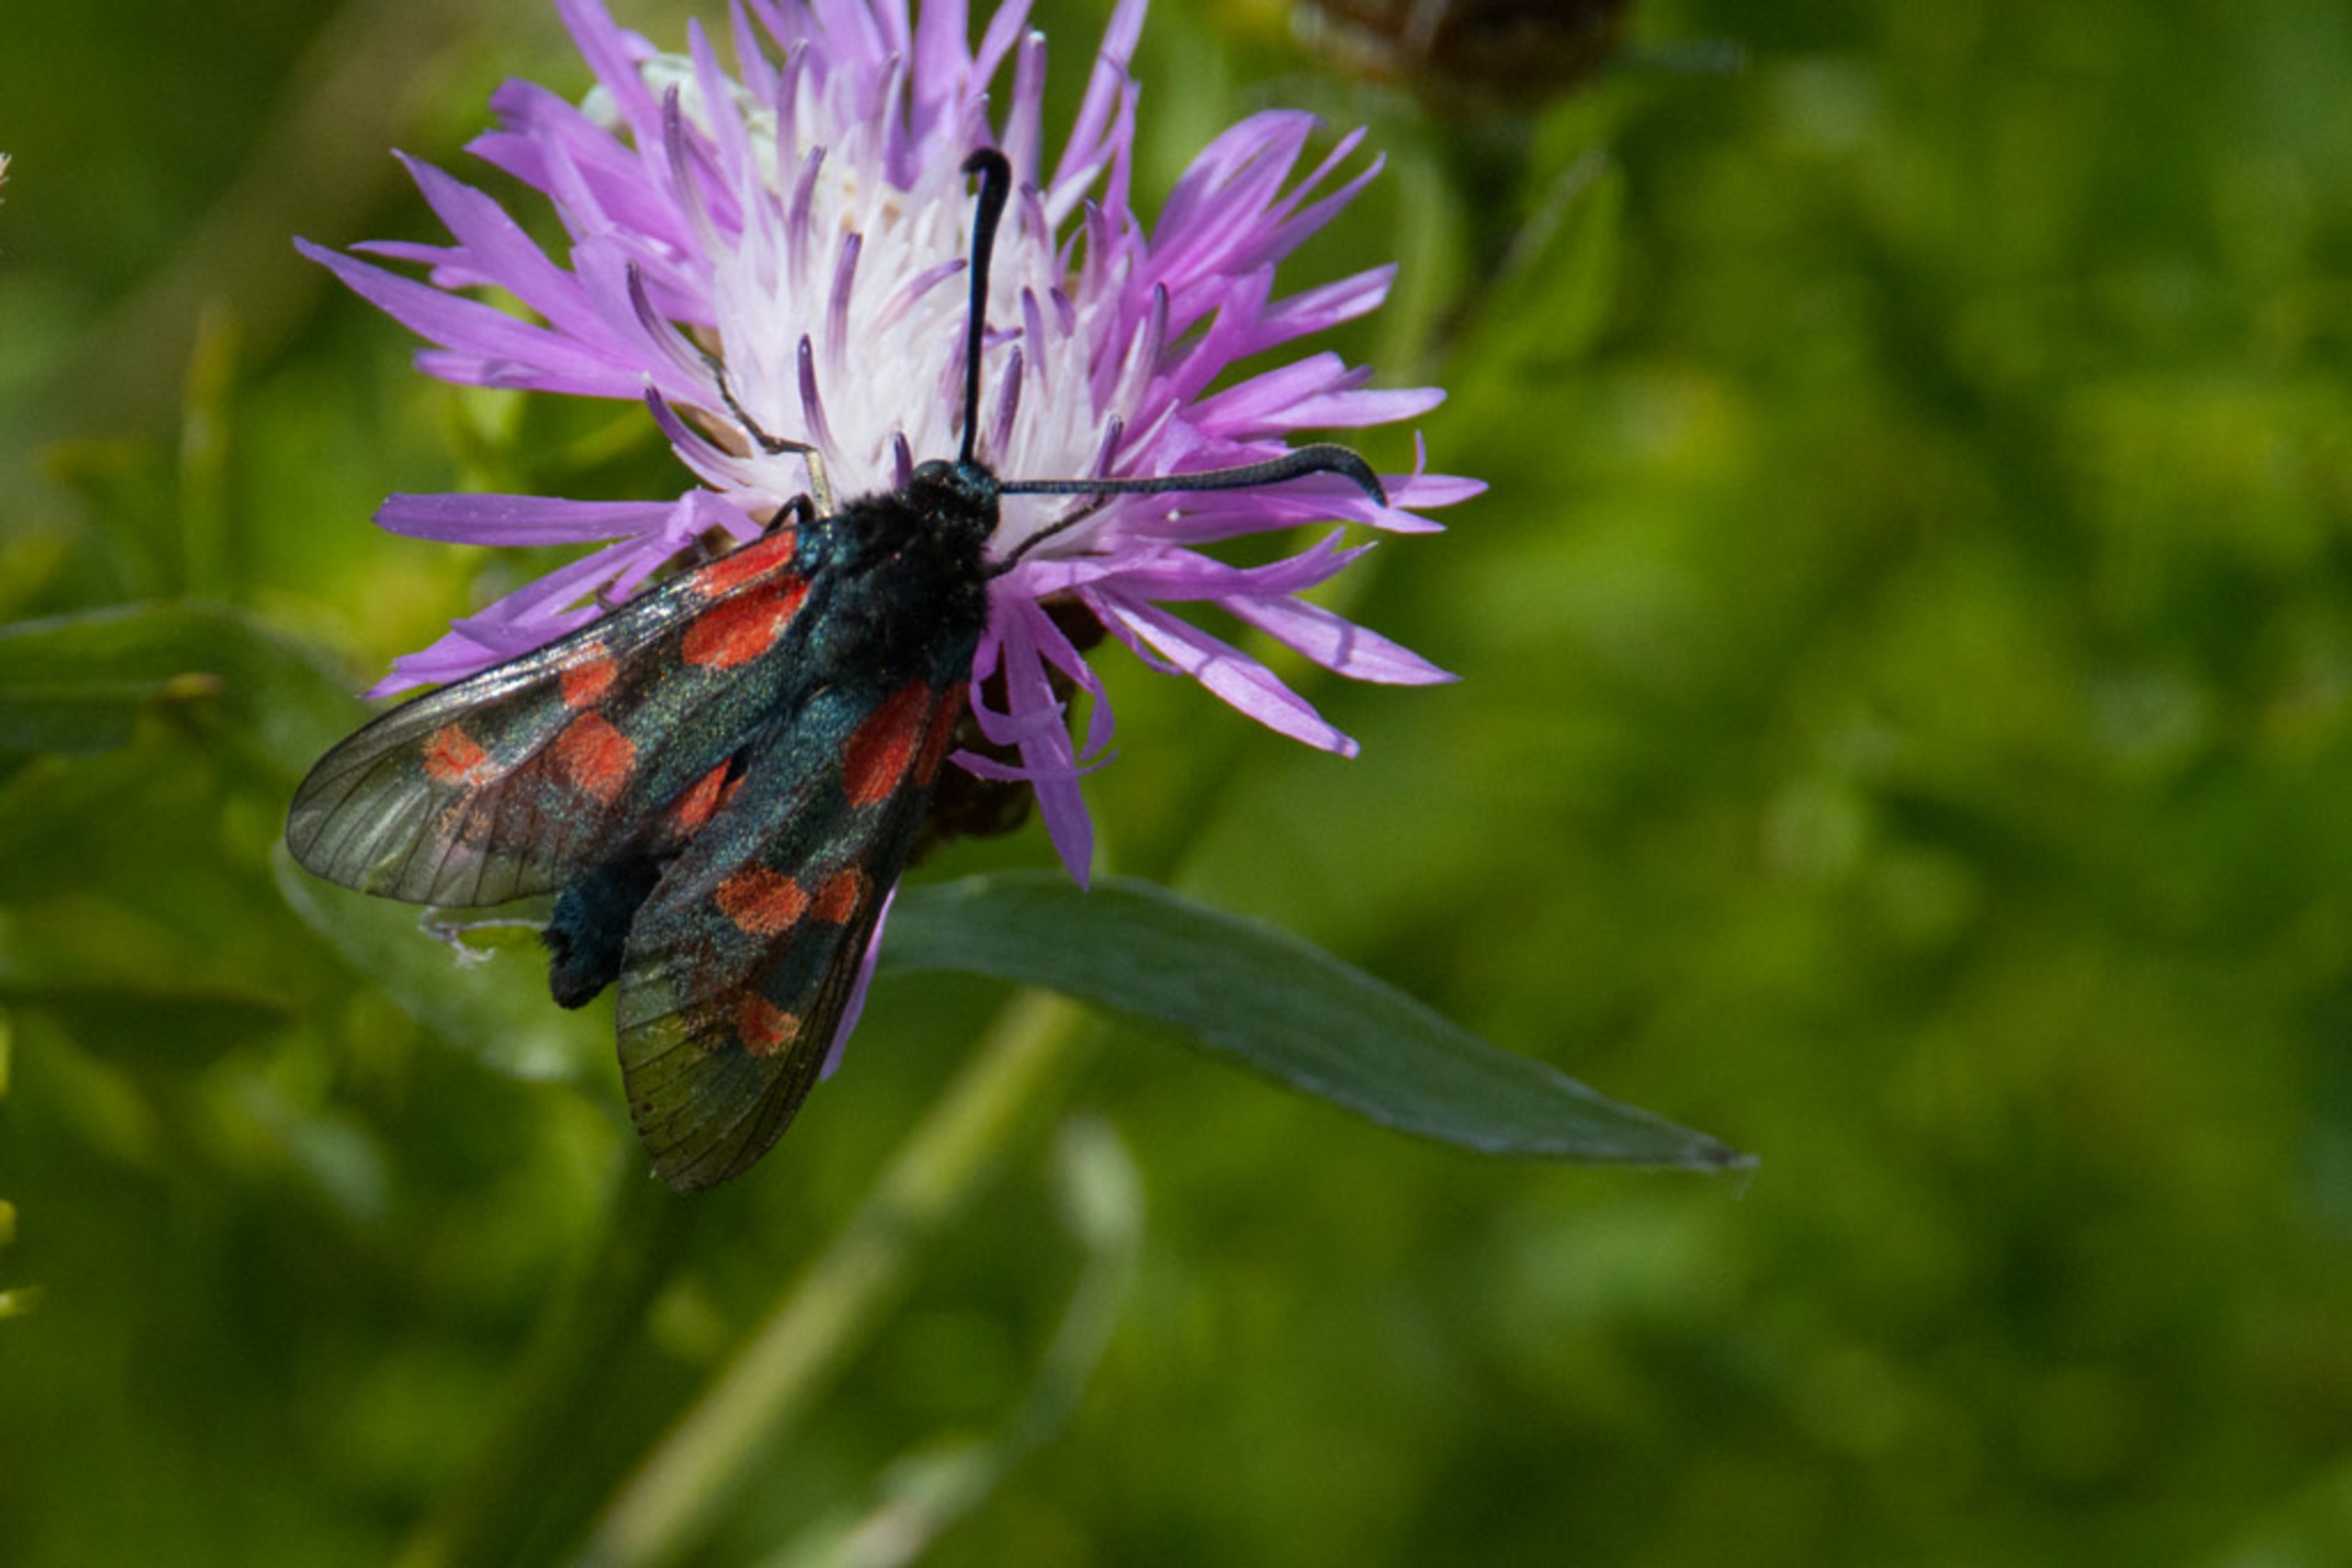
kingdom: Animalia
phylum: Arthropoda
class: Insecta
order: Lepidoptera
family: Zygaenidae
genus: Zygaena
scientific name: Zygaena lonicerae
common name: Femplettet køllesværmer
